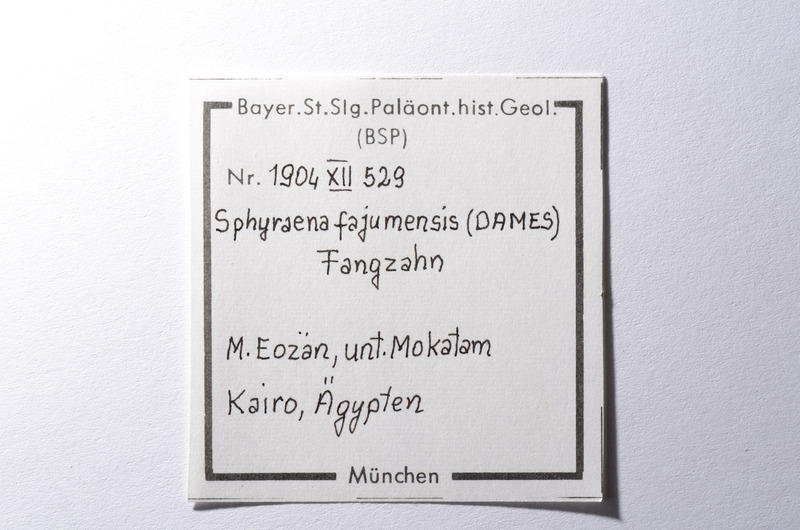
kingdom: Animalia
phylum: Chordata
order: Perciformes
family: Sphyraenidae
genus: Sphyraena
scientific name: Sphyraena Saurocephalus fajumensis
